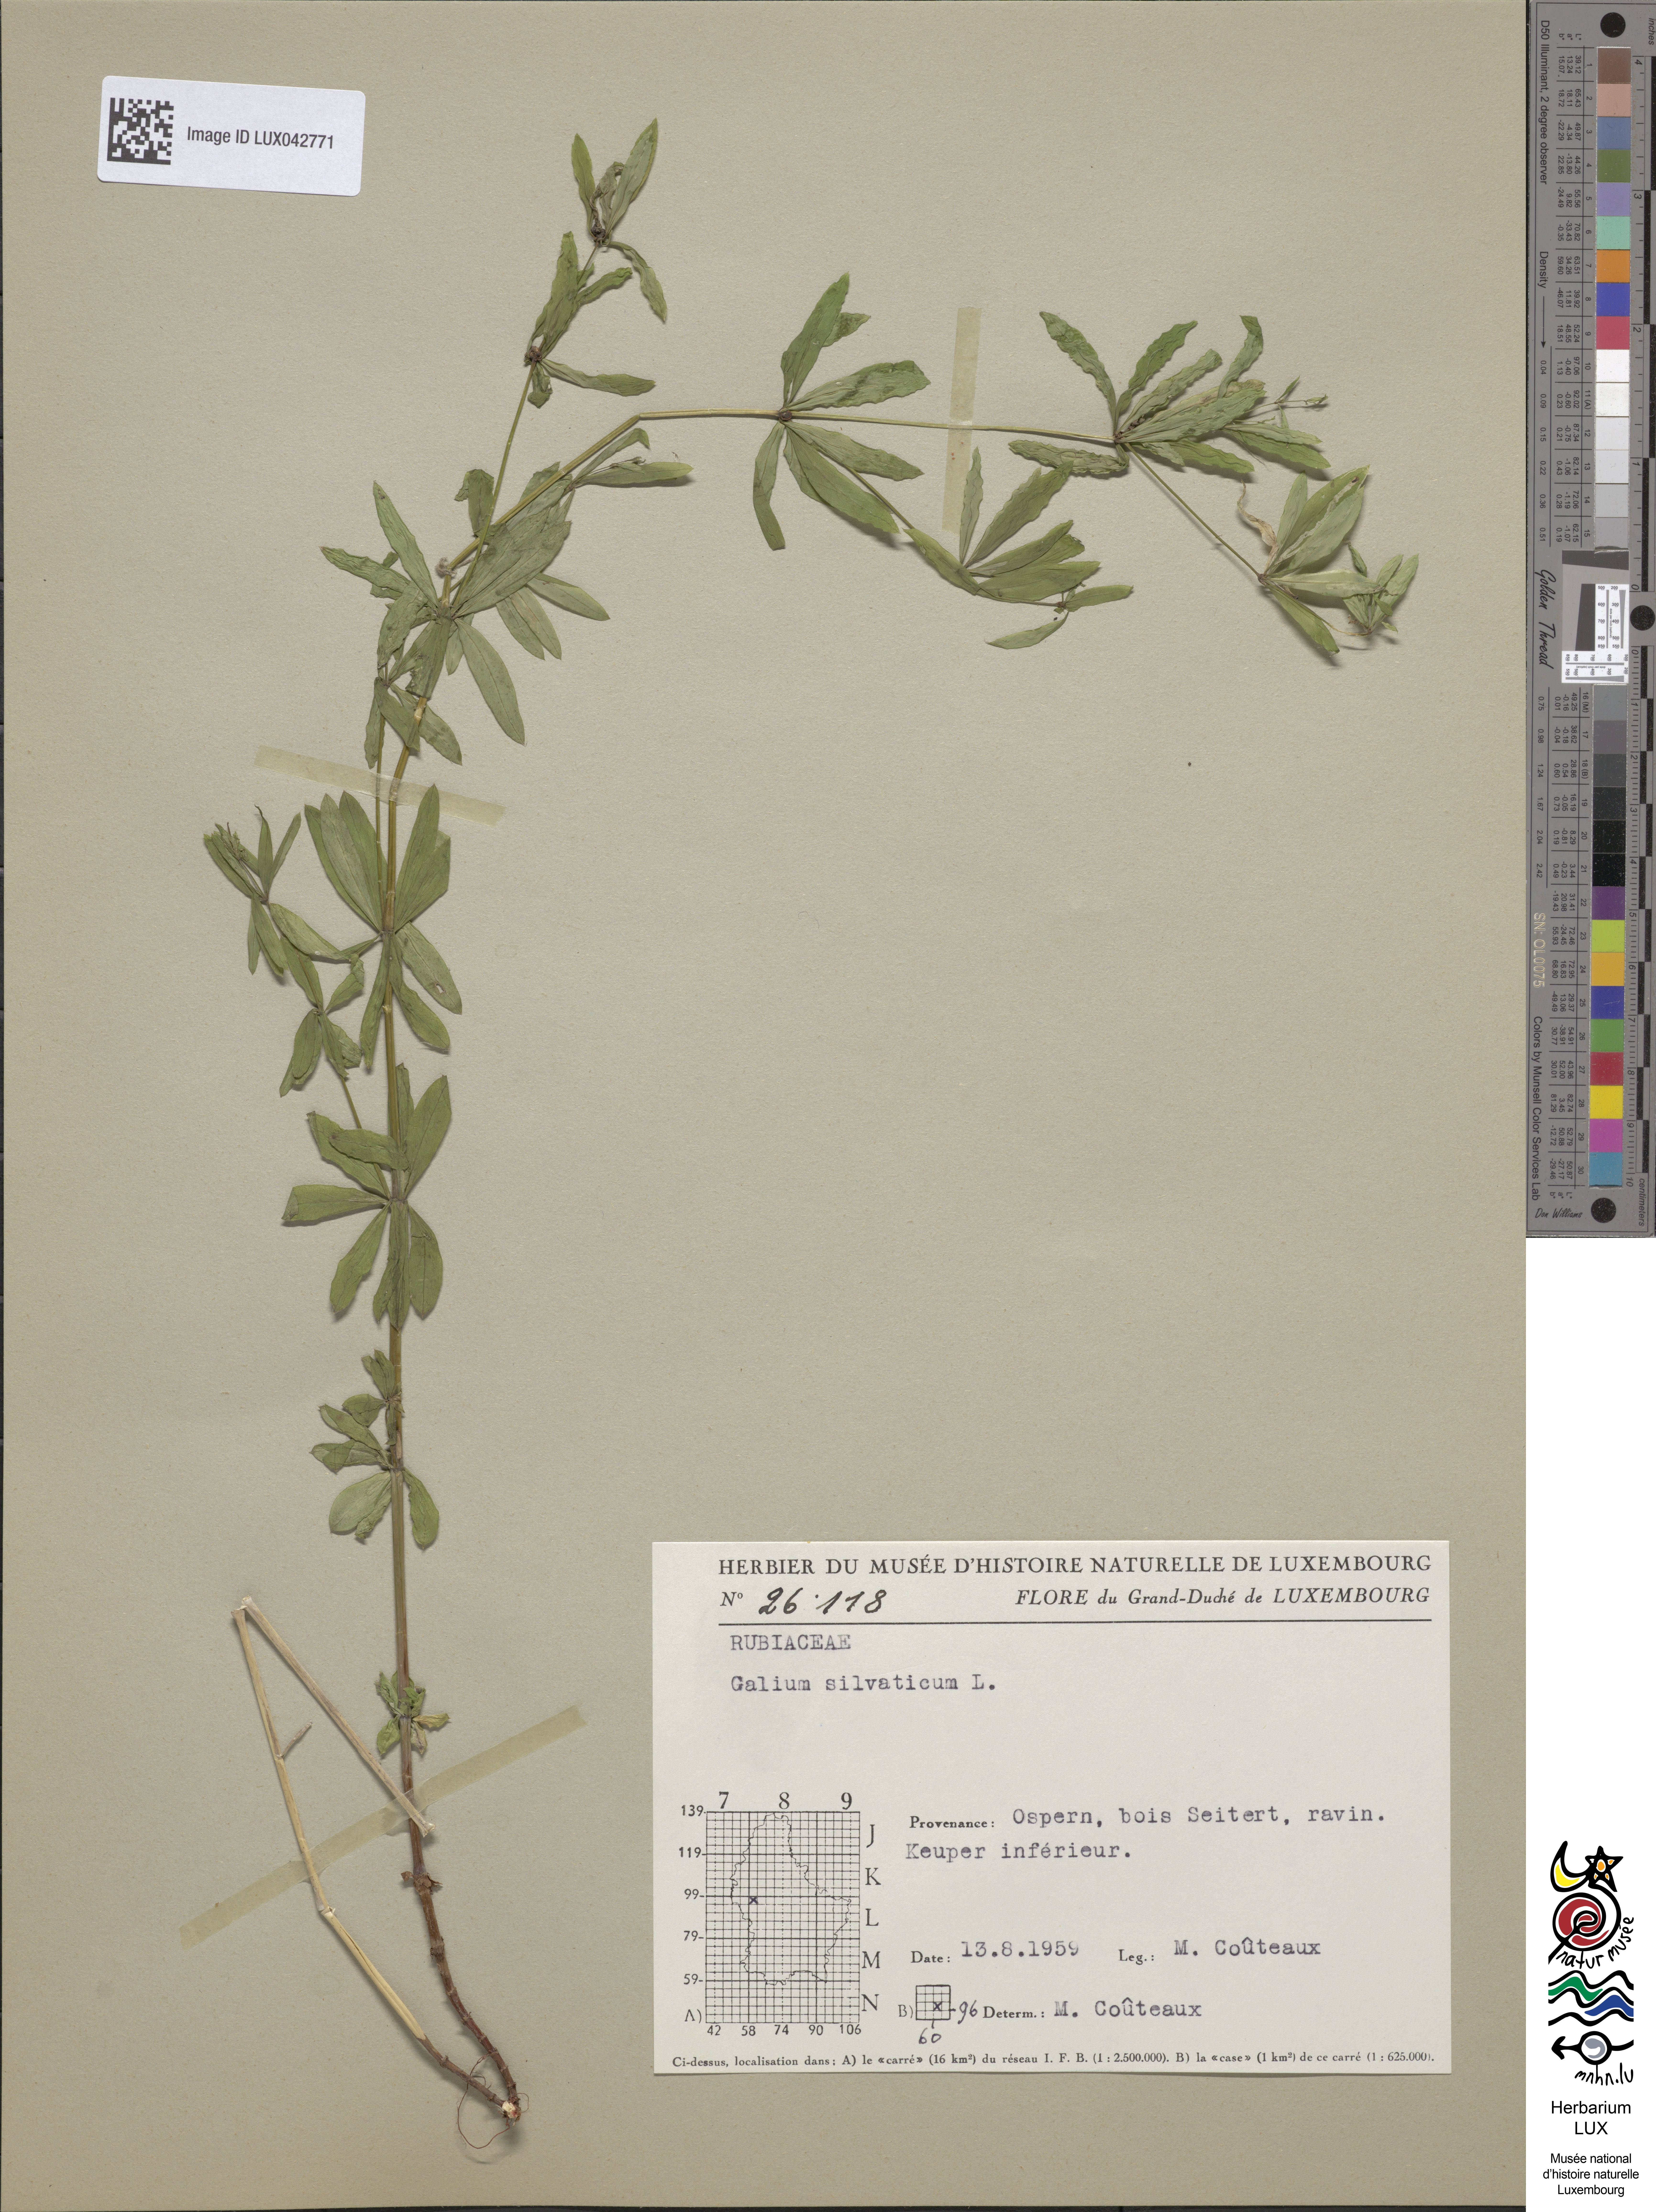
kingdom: Plantae
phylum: Tracheophyta
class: Magnoliopsida
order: Gentianales
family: Rubiaceae
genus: Galium
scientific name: Galium sylvaticum
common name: Wood bedstraw
